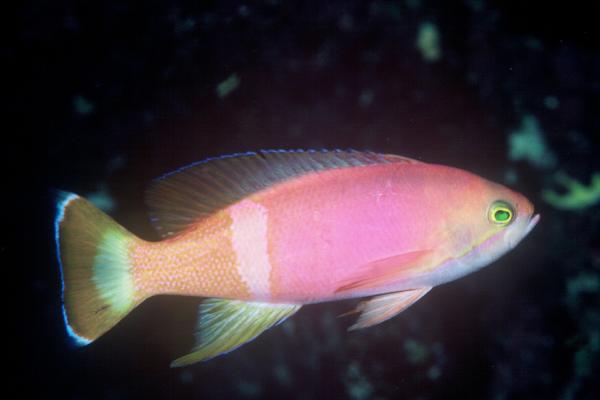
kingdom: Animalia
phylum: Chordata
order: Perciformes
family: Serranidae
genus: Pseudanthias
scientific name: Pseudanthias pictilis
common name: Painted anthias
